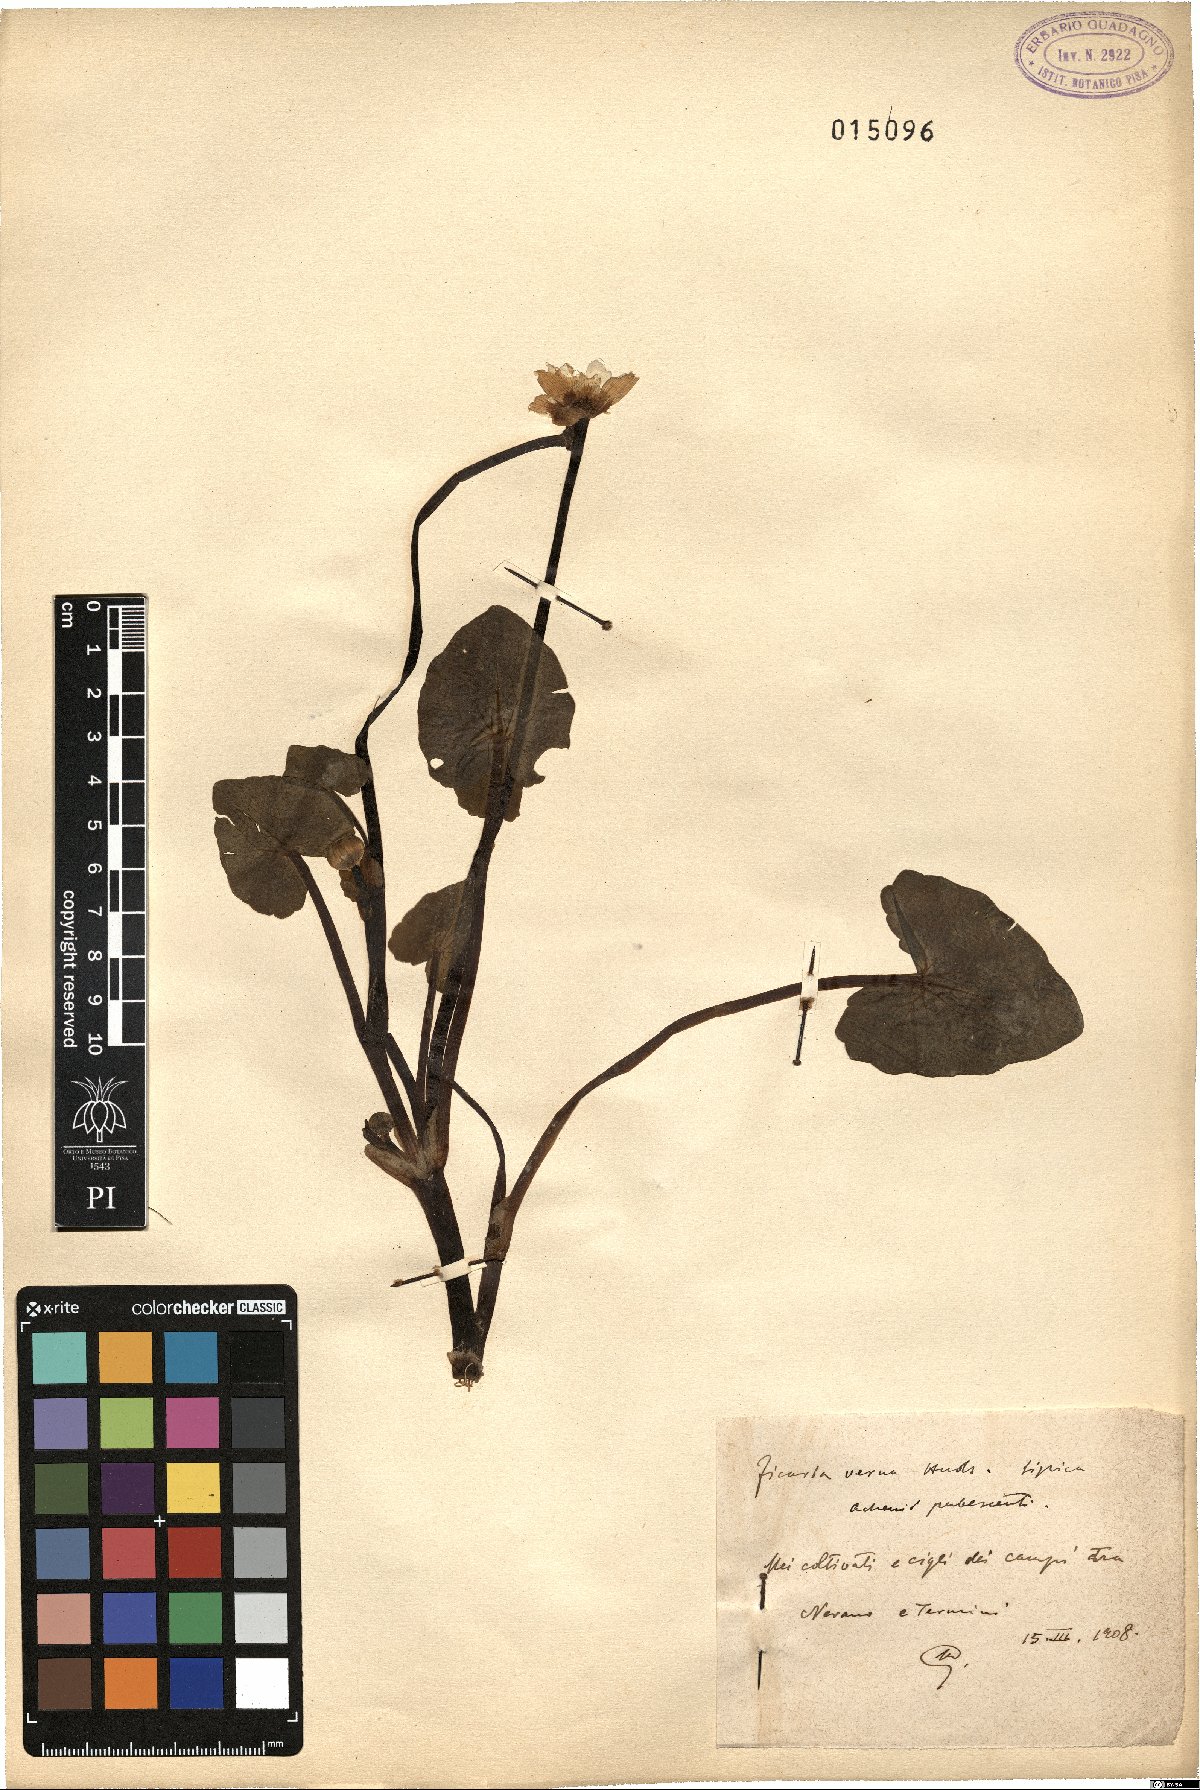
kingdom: Plantae
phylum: Tracheophyta
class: Magnoliopsida
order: Ranunculales
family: Ranunculaceae
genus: Ficaria
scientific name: Ficaria verna
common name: Lesser celandine
